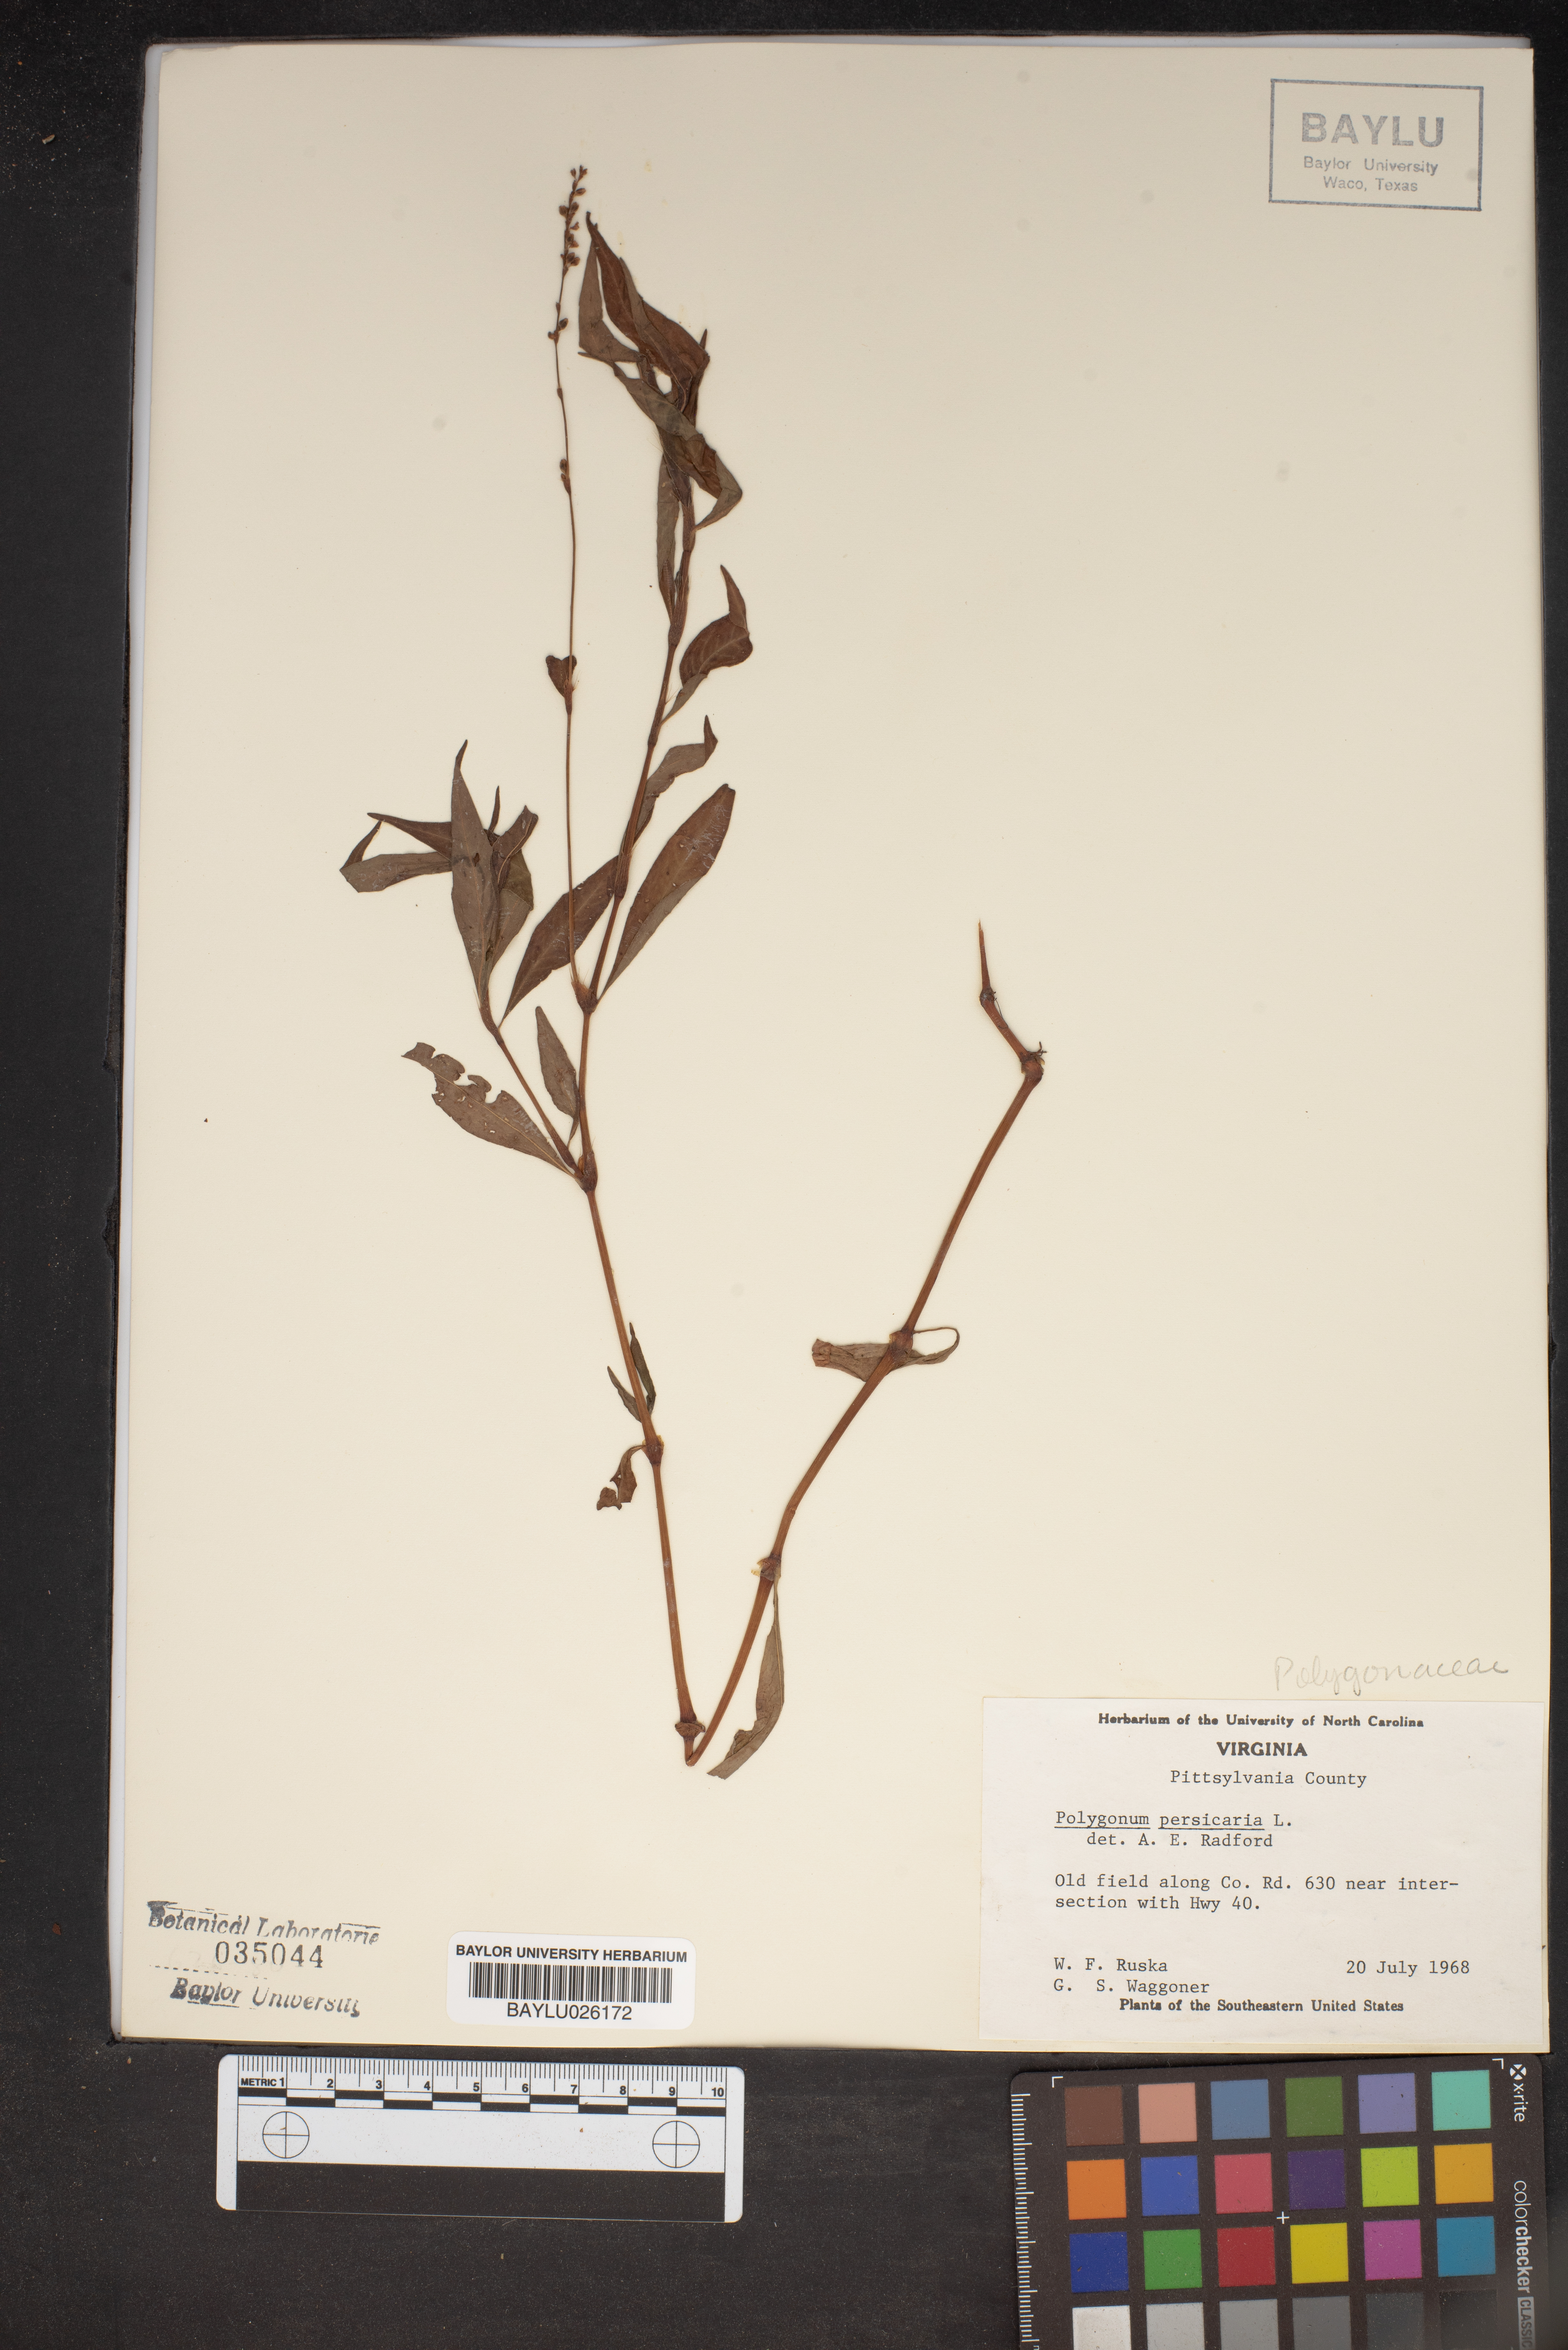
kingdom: Plantae
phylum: Tracheophyta
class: Magnoliopsida
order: Caryophyllales
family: Polygonaceae
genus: Persicaria
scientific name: Persicaria maculosa
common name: Redshank
